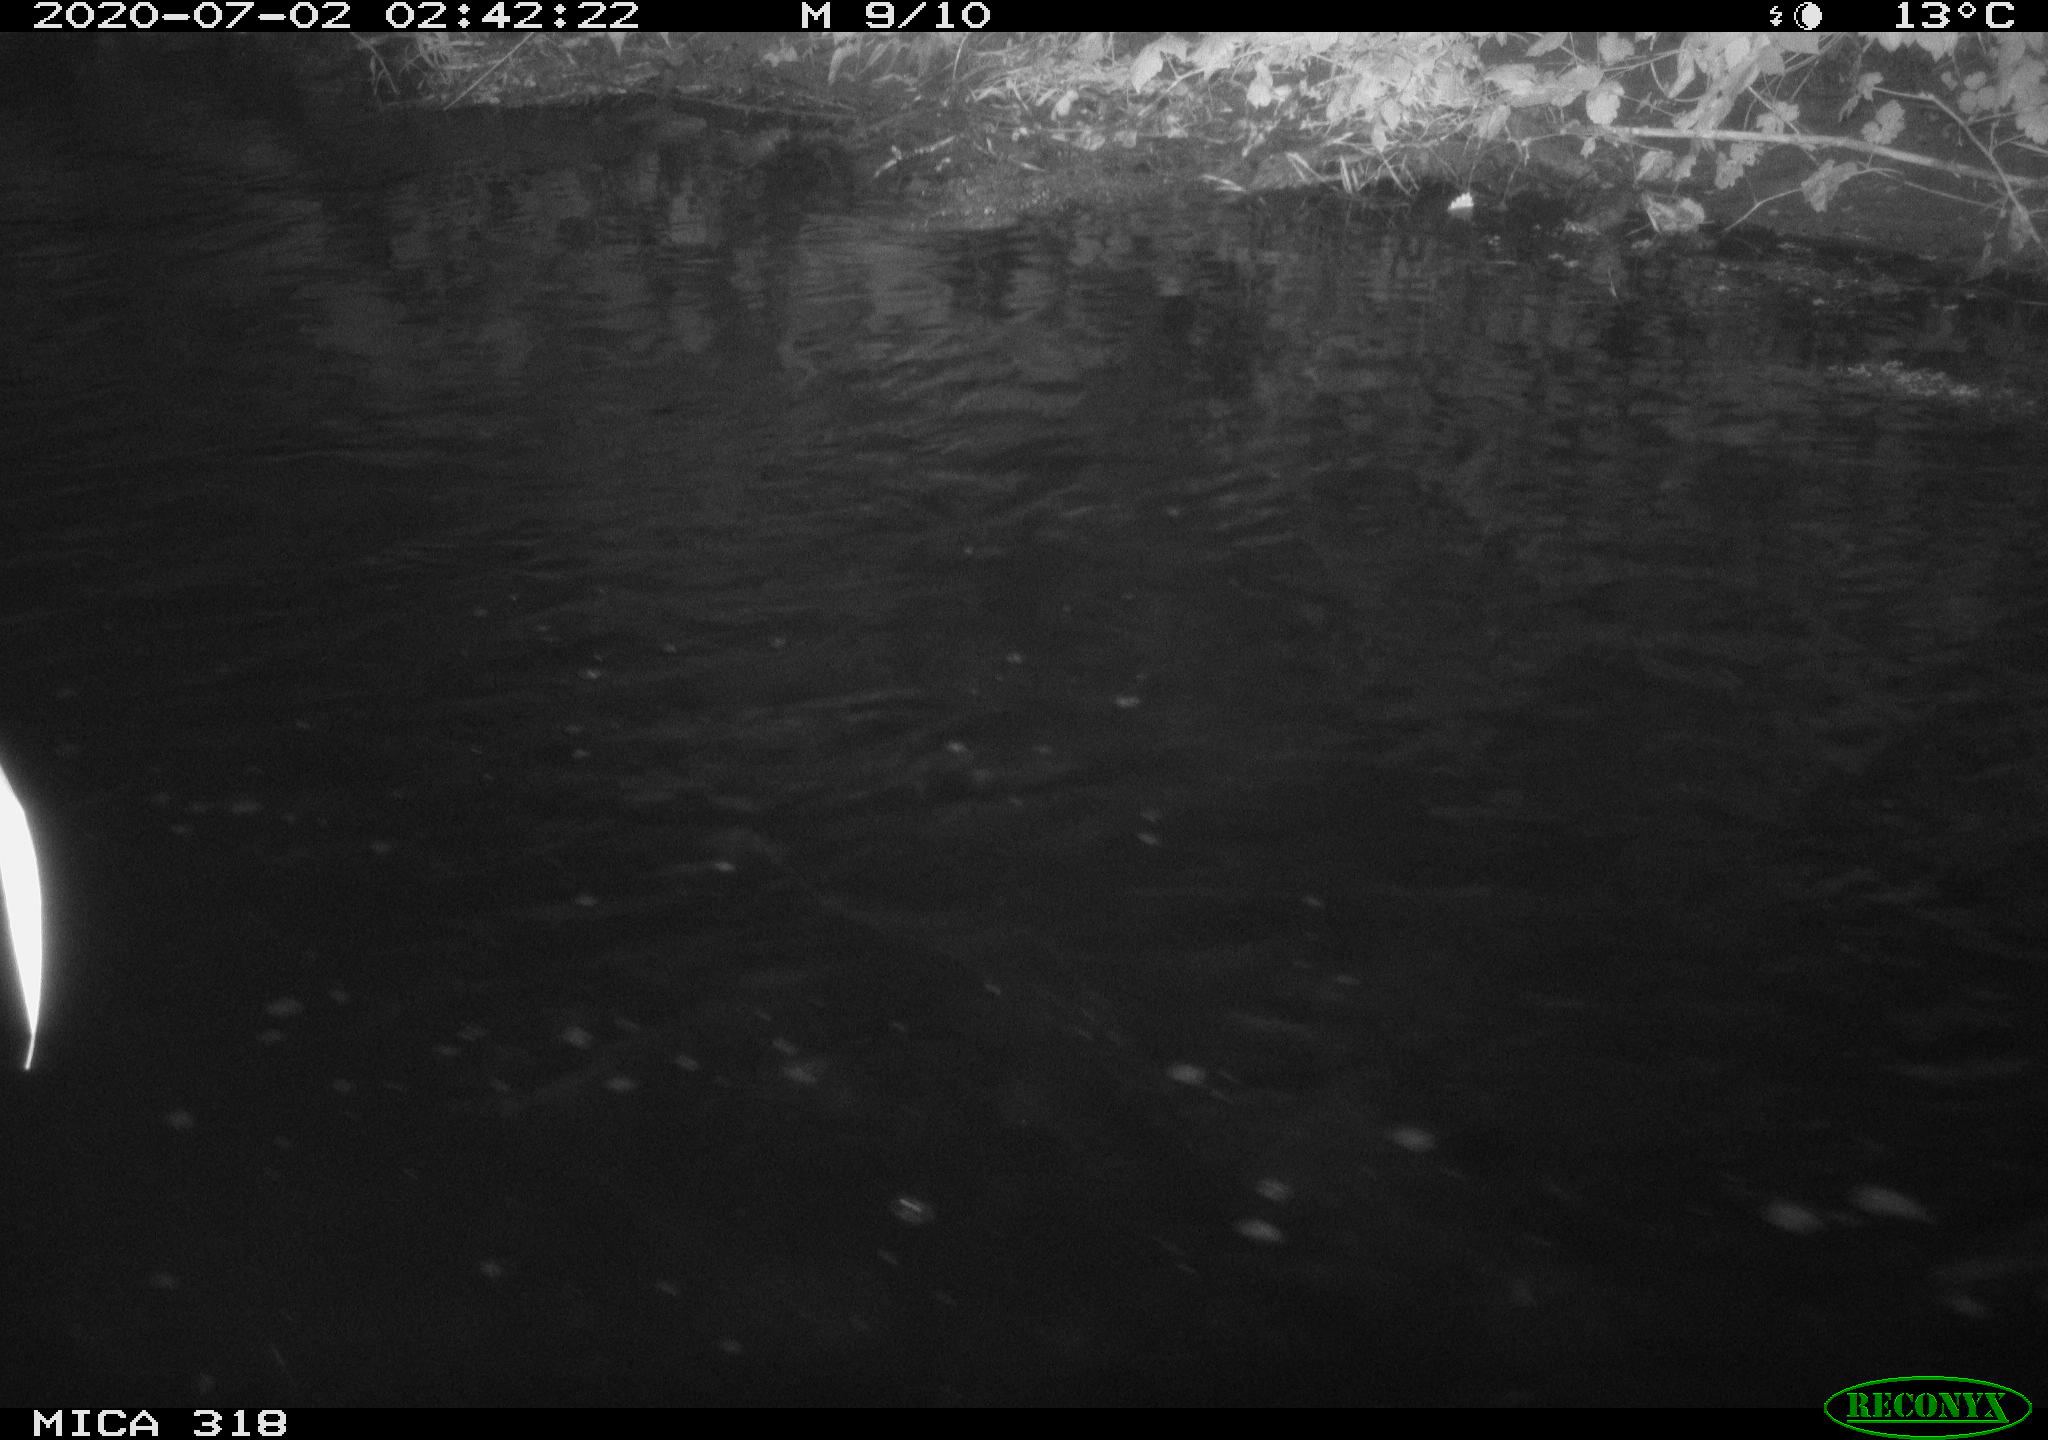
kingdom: Animalia
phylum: Chordata
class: Aves
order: Pelecaniformes
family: Ardeidae
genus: Ardea
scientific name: Ardea cinerea
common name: Grey heron
